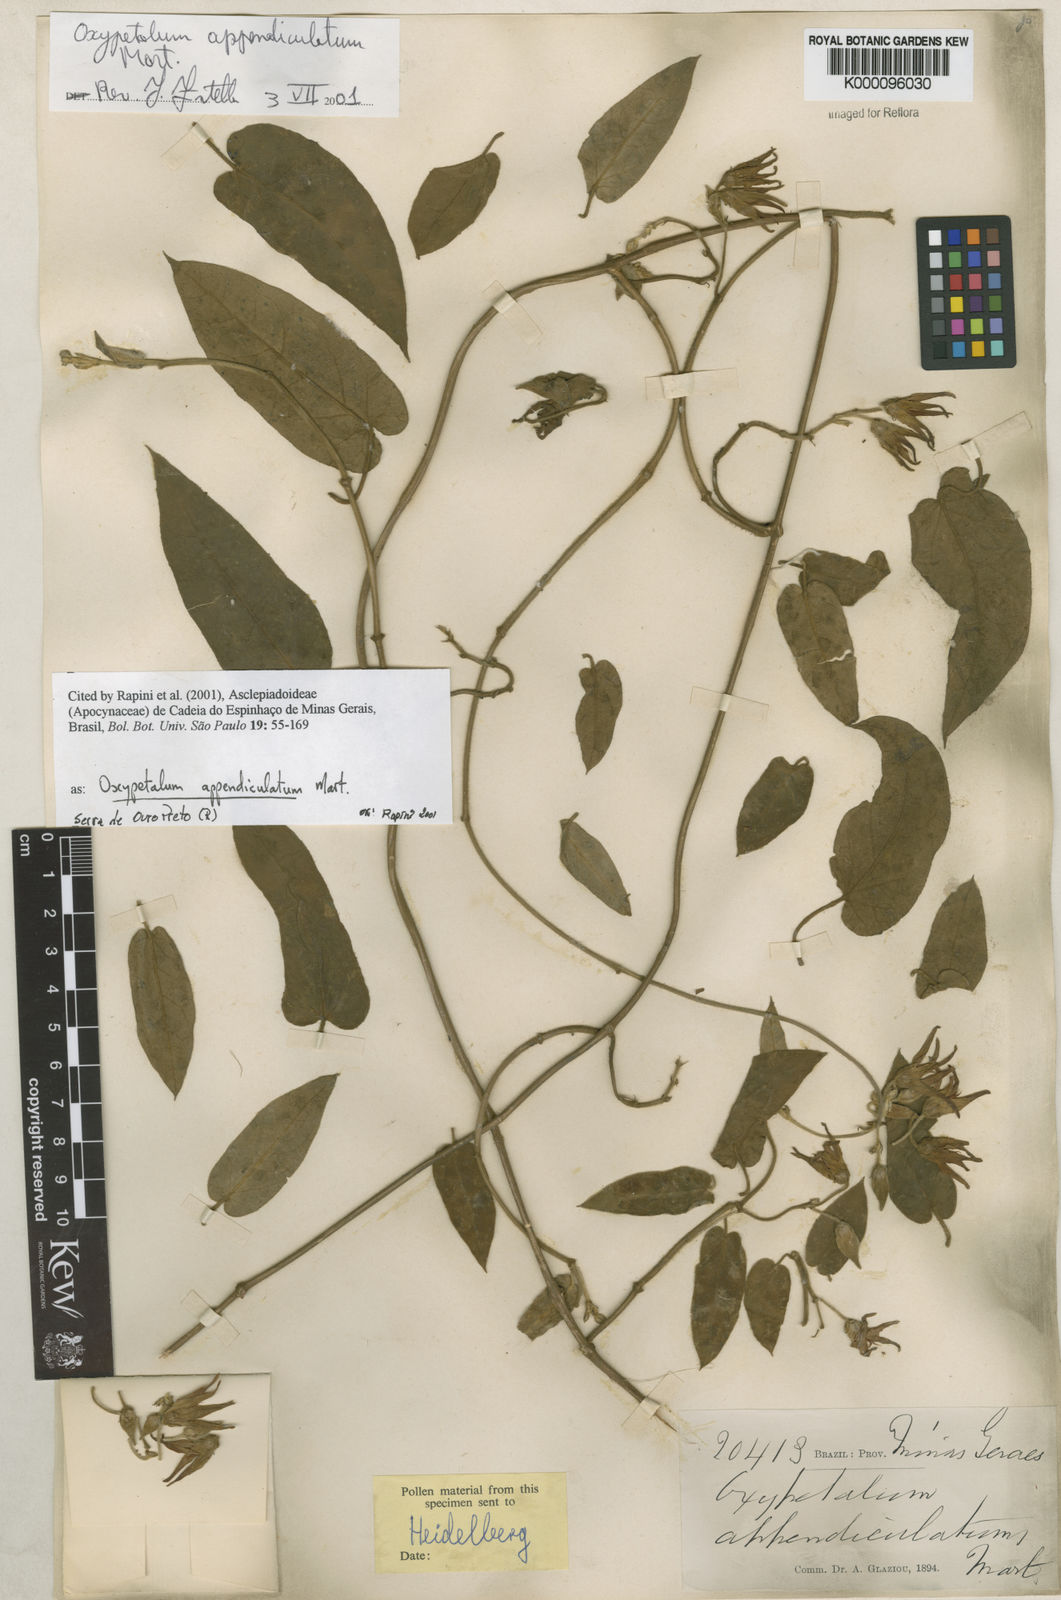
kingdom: Plantae
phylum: Tracheophyta
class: Magnoliopsida
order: Gentianales
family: Apocynaceae
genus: Oxypetalum
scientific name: Oxypetalum appendiculatum
